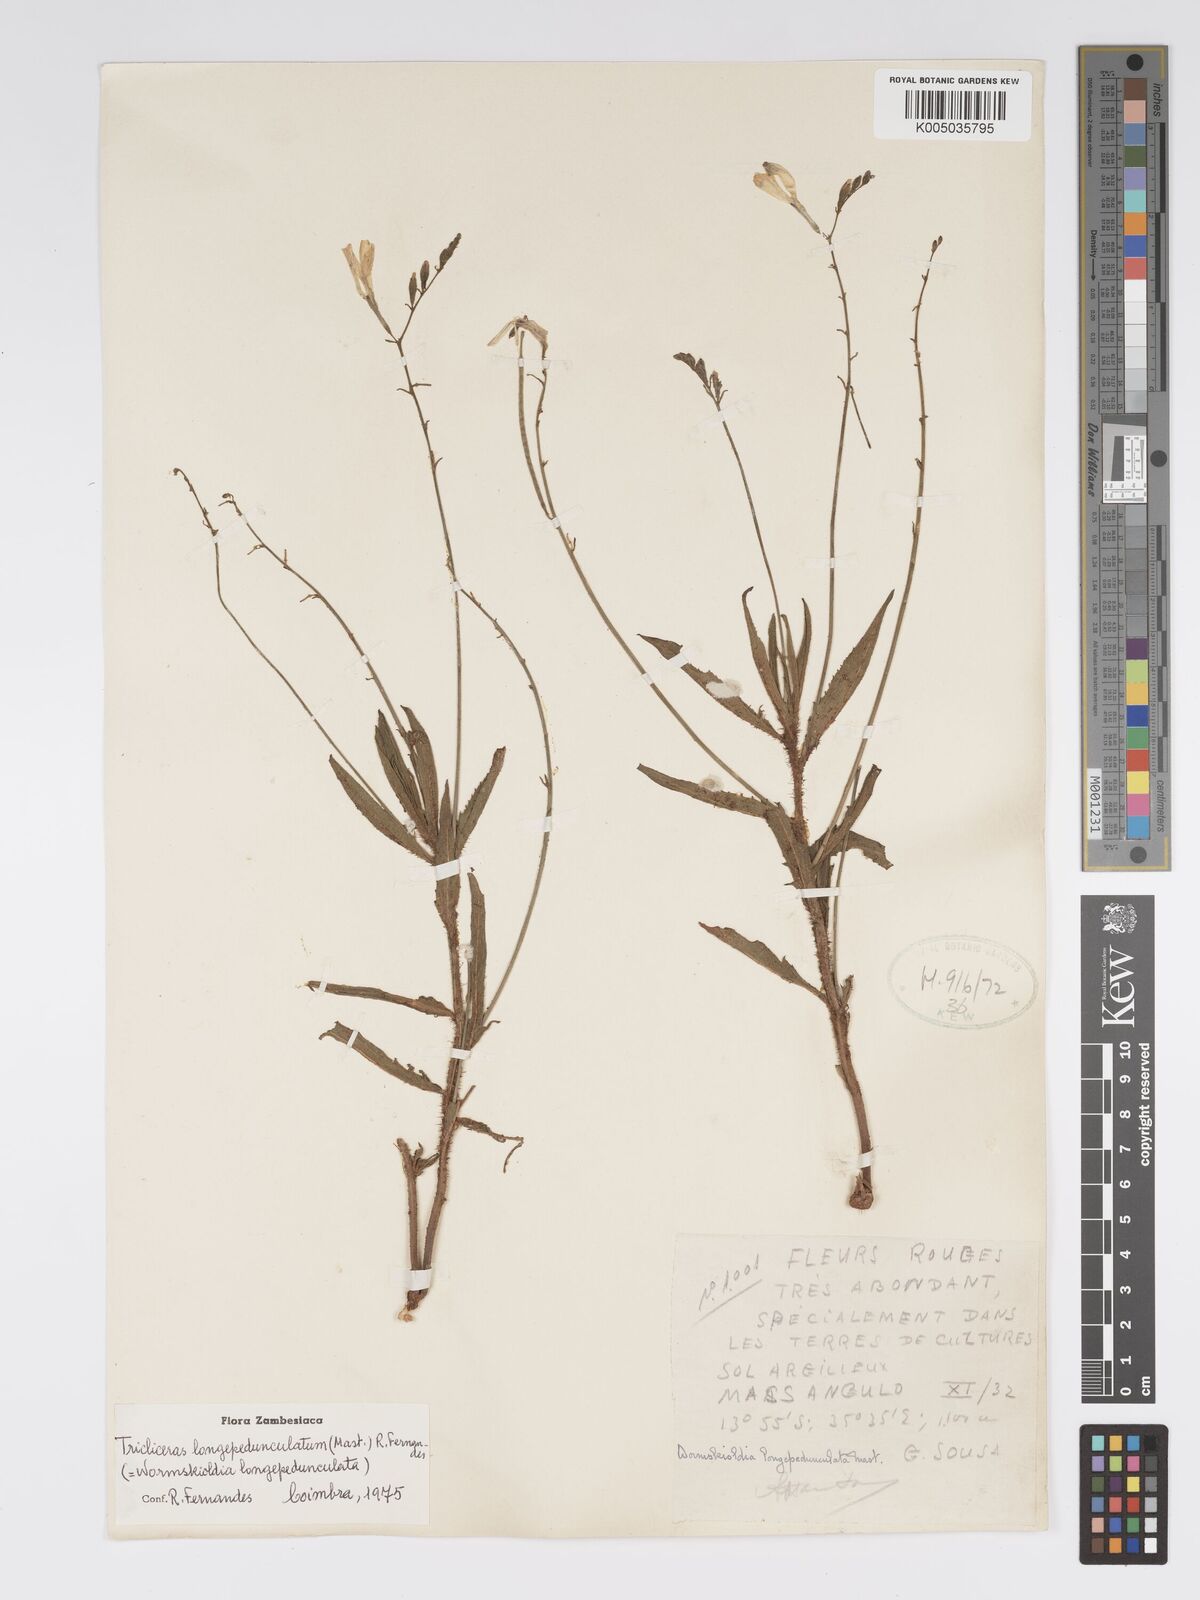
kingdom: Plantae
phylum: Tracheophyta
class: Magnoliopsida
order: Malpighiales
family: Turneraceae
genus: Tricliceras
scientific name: Tricliceras longepedunculatum
